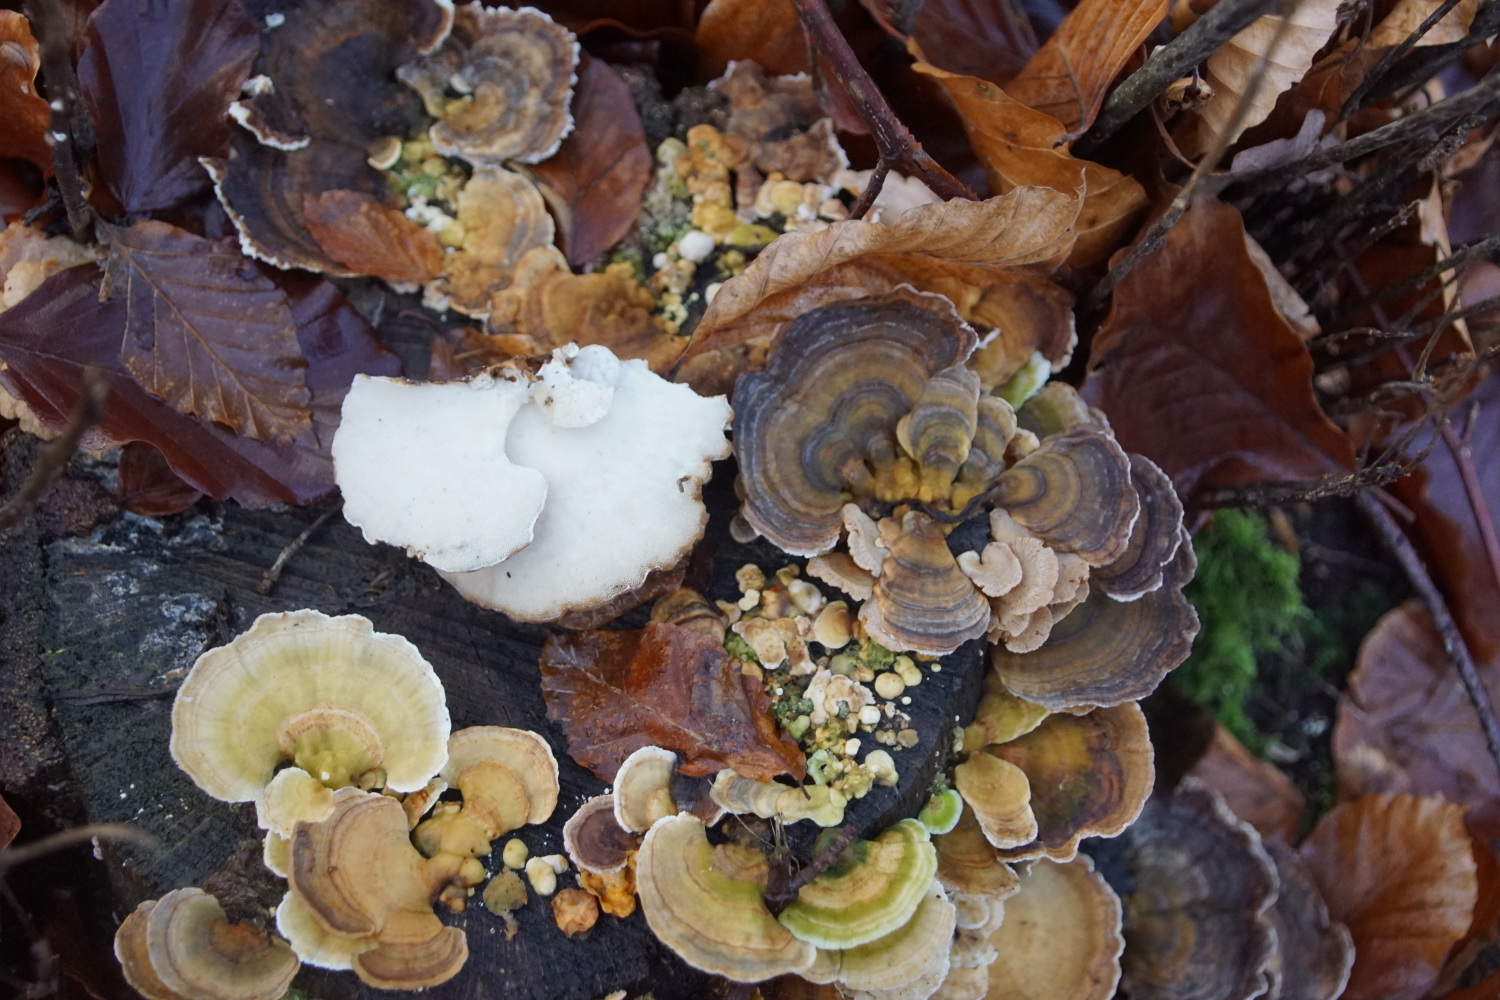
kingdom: Fungi
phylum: Basidiomycota
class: Agaricomycetes
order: Polyporales
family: Polyporaceae
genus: Trametes
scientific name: Trametes versicolor
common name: broget læderporesvamp
